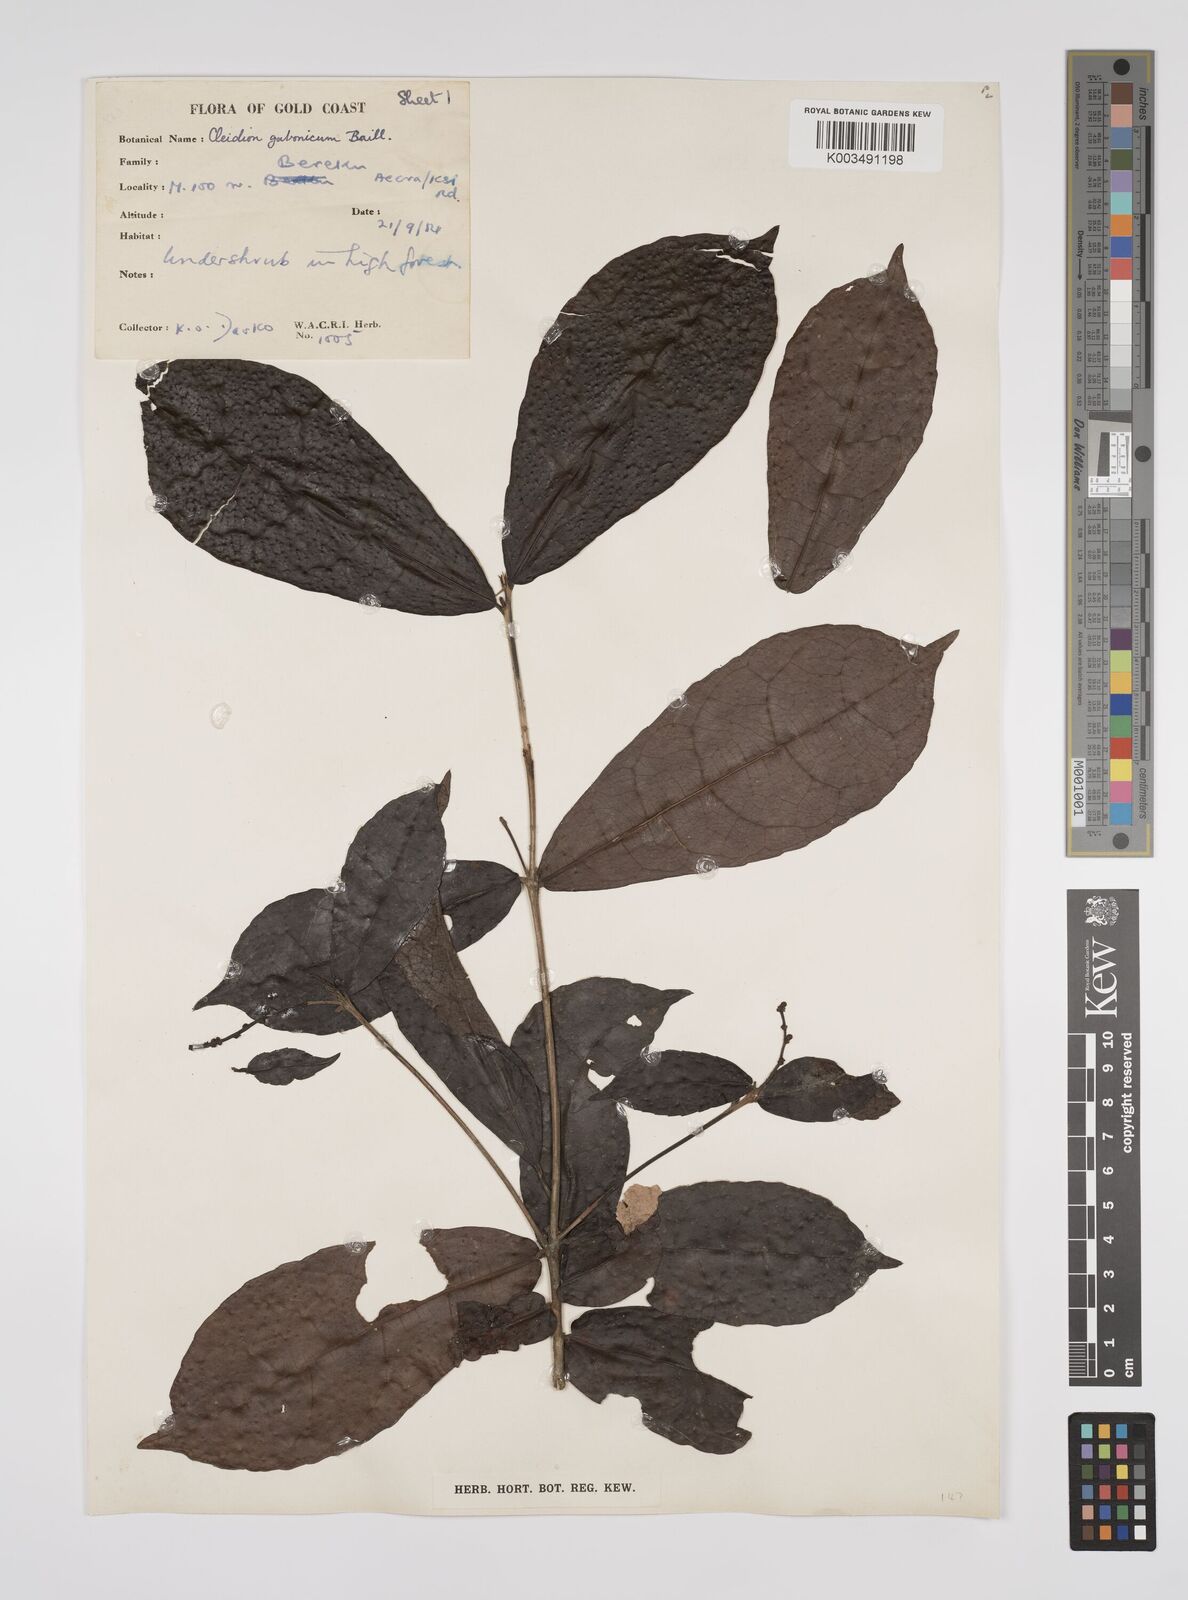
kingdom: Plantae
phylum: Tracheophyta
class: Magnoliopsida
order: Malpighiales
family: Euphorbiaceae
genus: Cleidion
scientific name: Cleidion gabonicum
